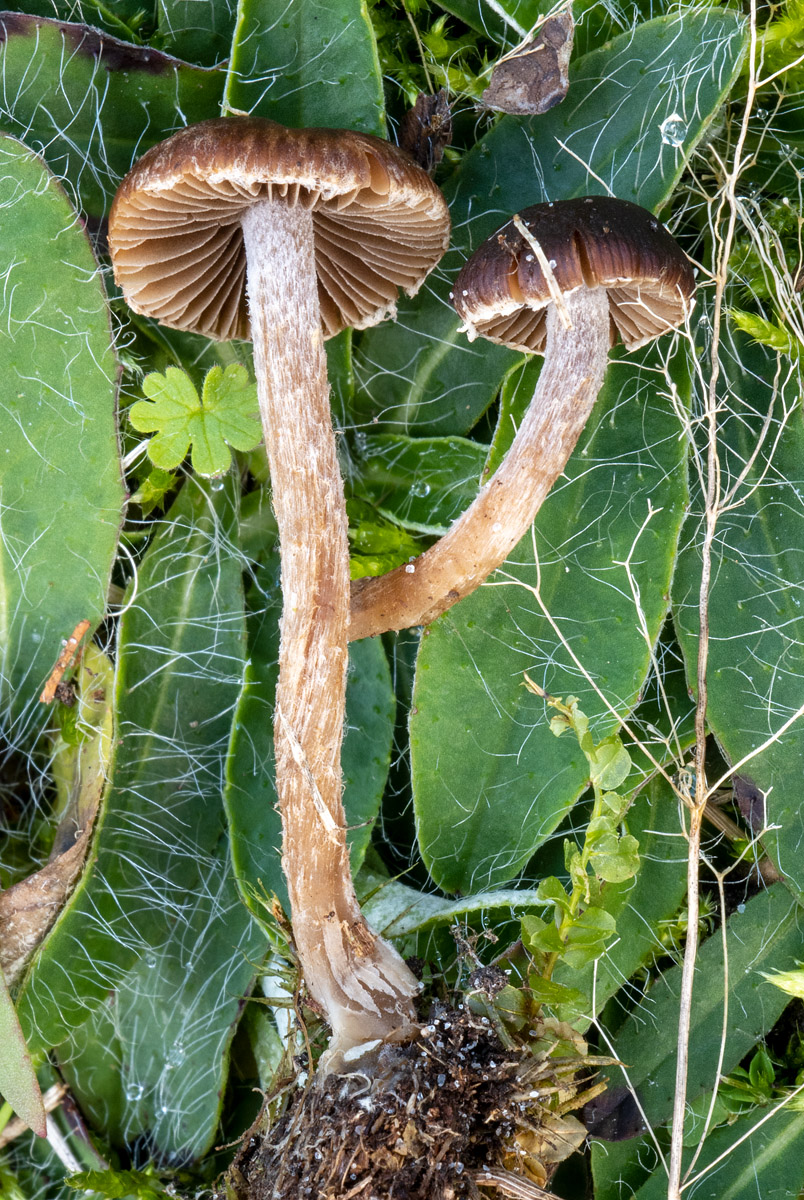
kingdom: Fungi
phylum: Basidiomycota
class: Agaricomycetes
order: Agaricales
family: Psathyrellaceae
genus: Psathyrella
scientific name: Psathyrella flexispora
